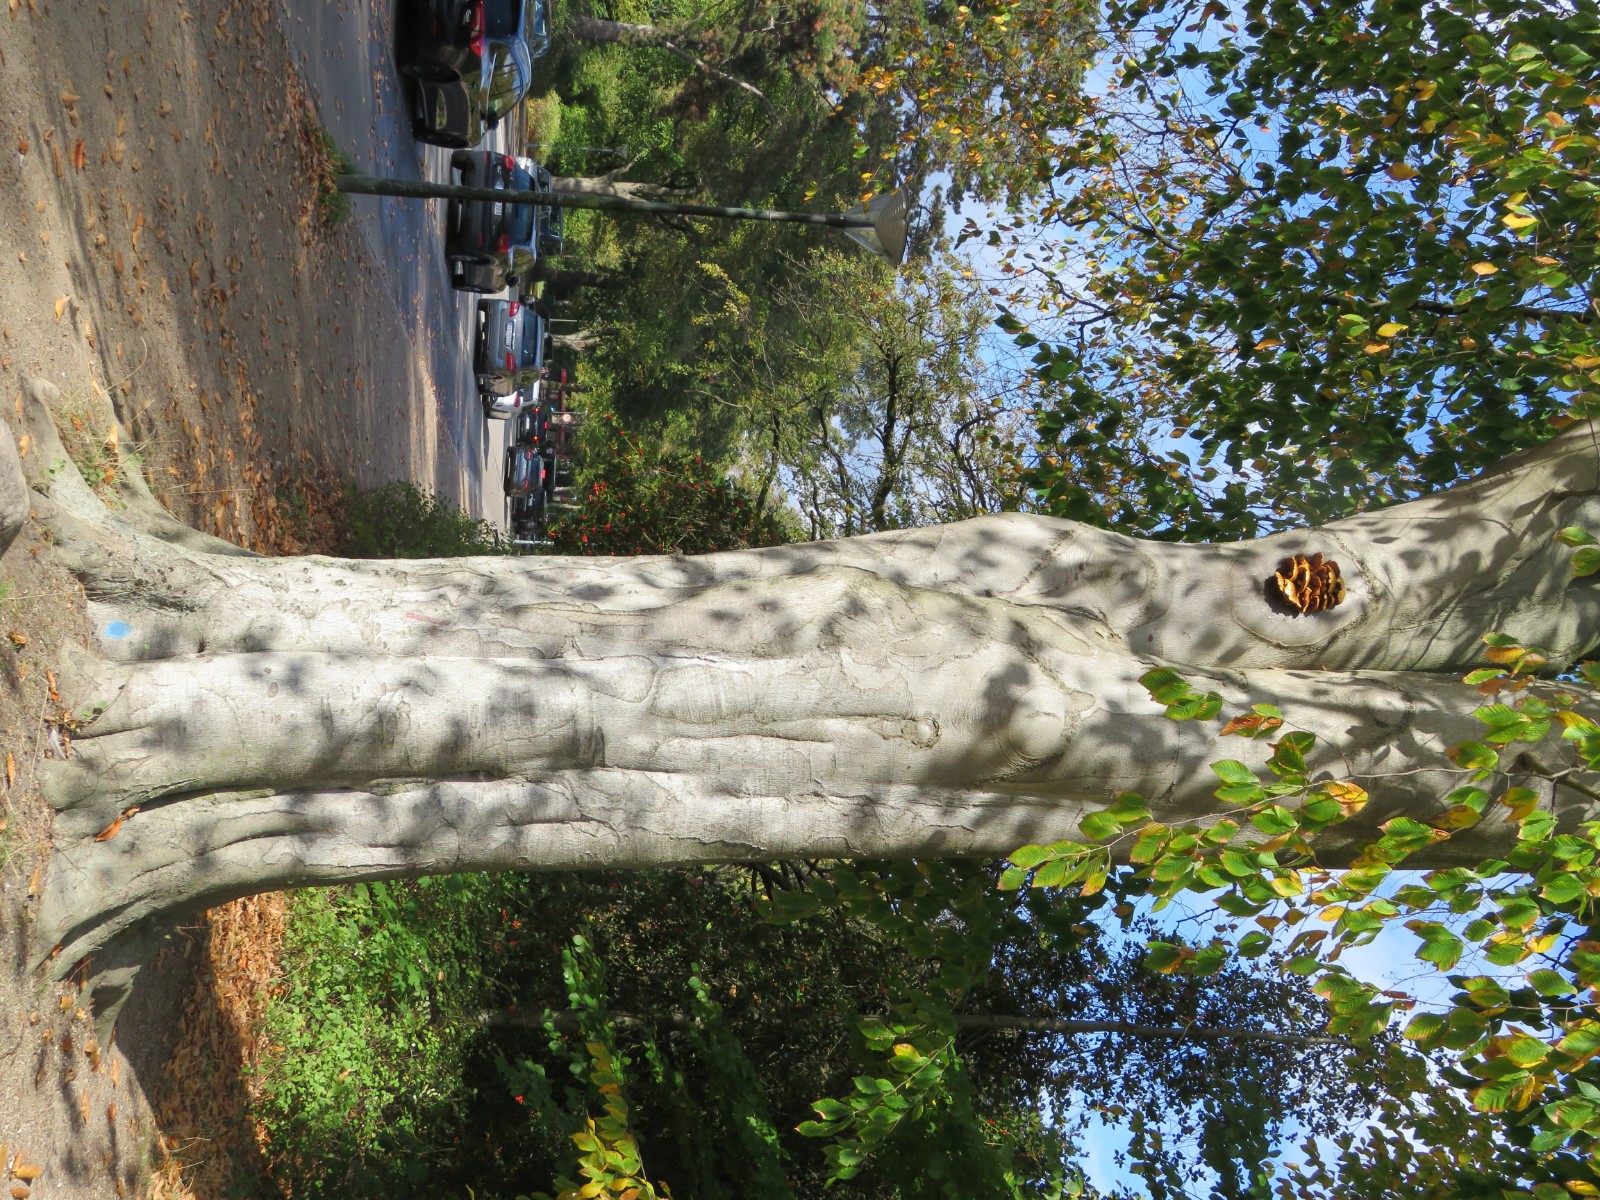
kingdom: Fungi
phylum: Basidiomycota
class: Agaricomycetes
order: Agaricales
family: Strophariaceae
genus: Pholiota
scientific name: Pholiota adiposa
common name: højtsiddende skælhat
